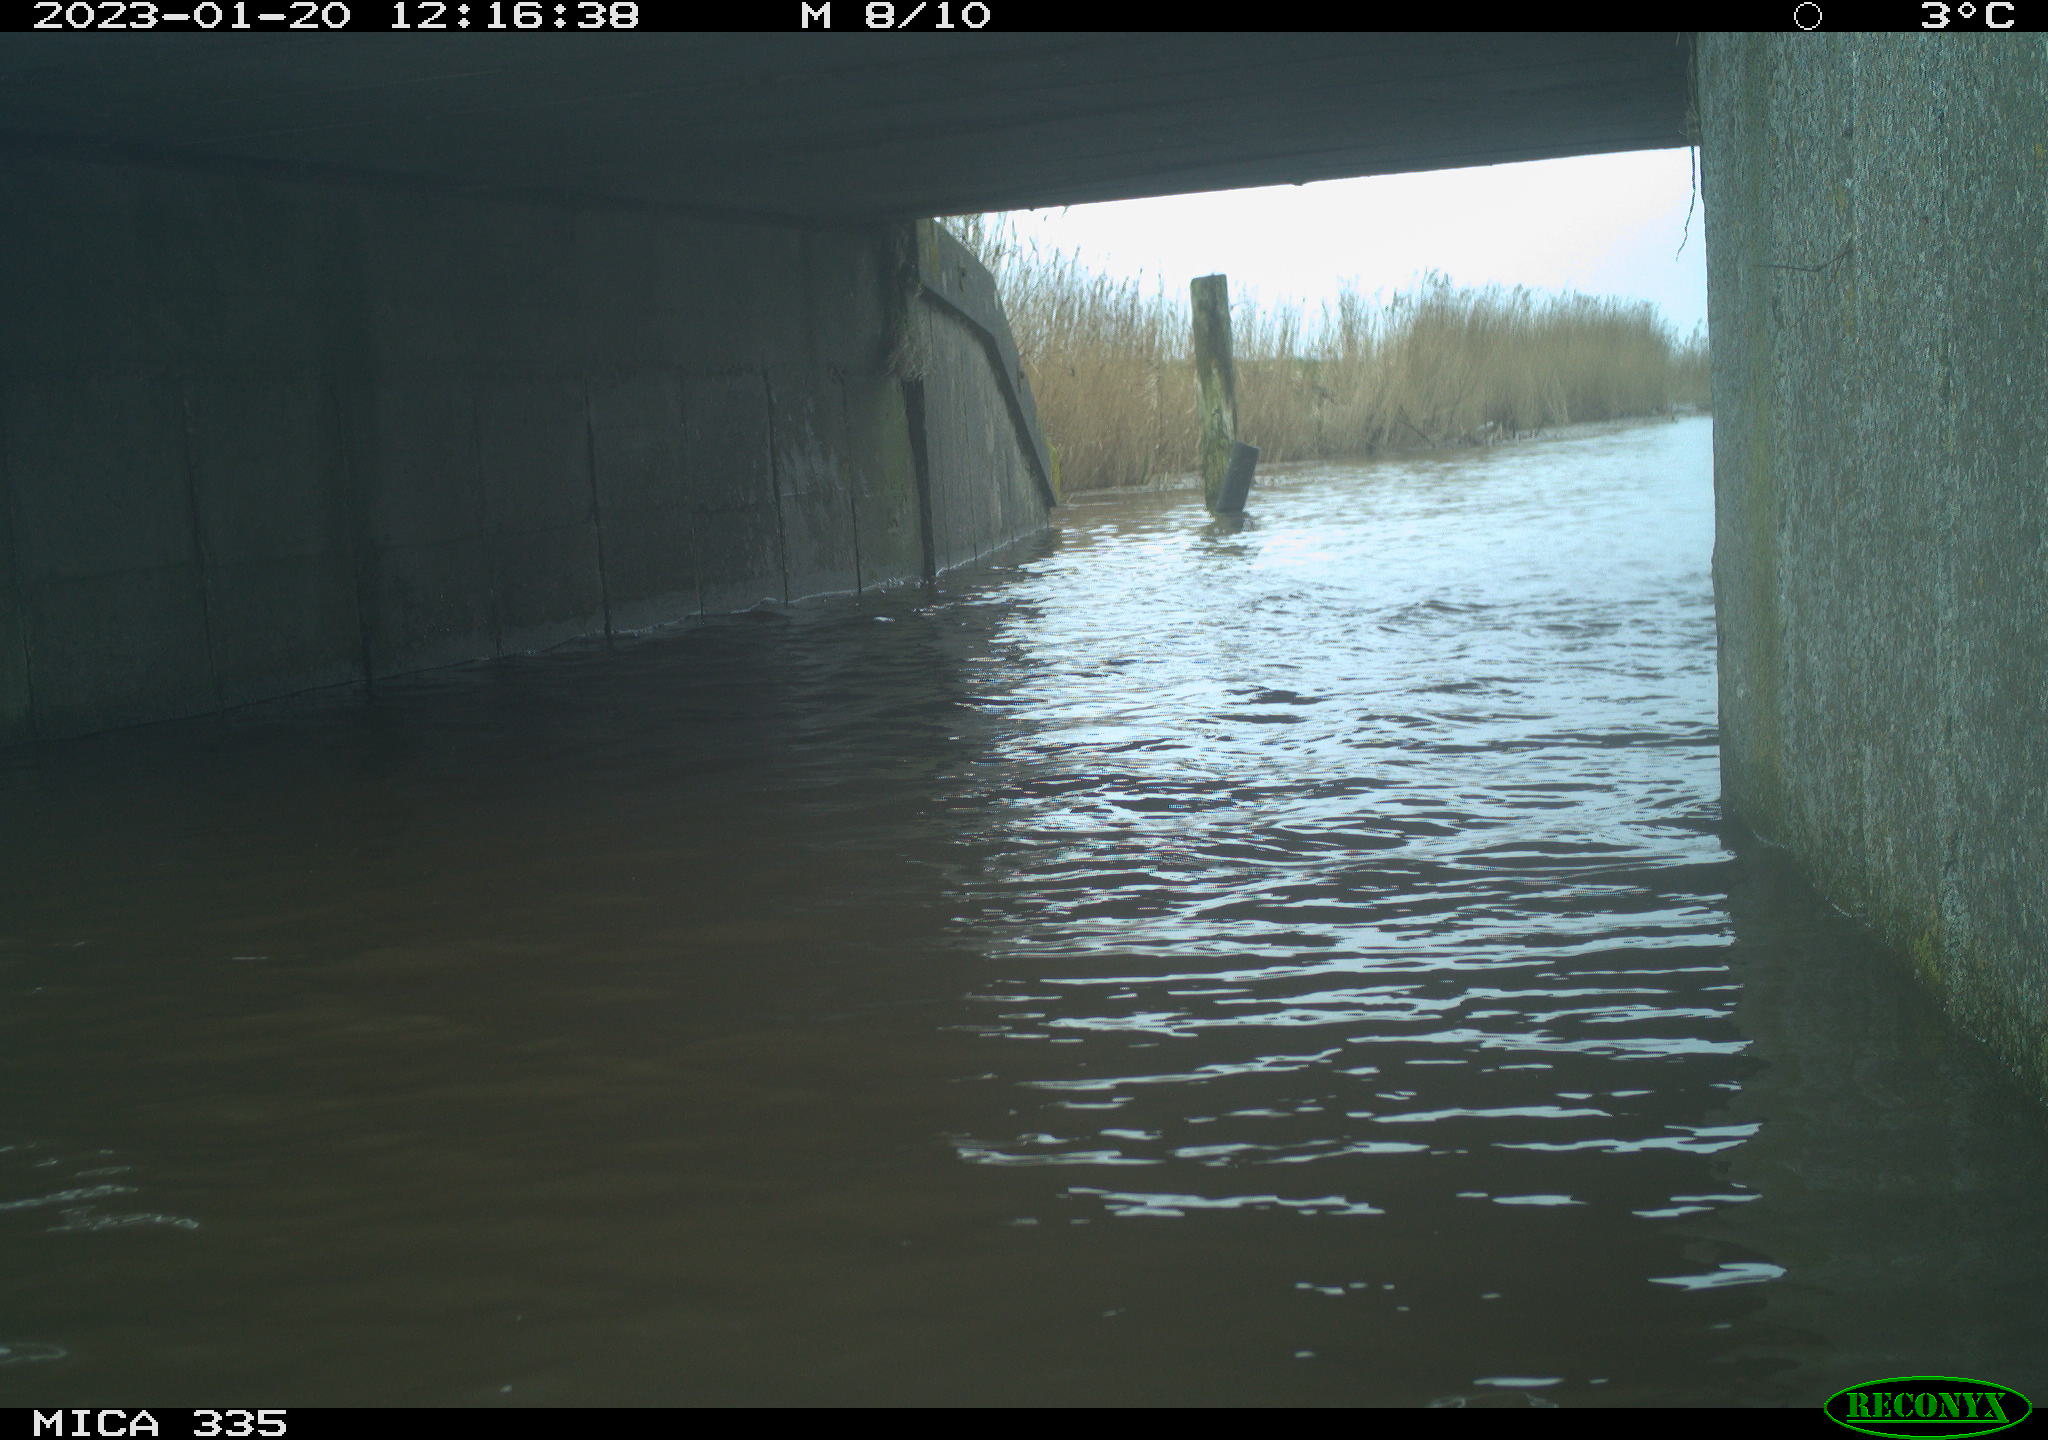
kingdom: Animalia
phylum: Chordata
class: Aves
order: Anseriformes
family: Anatidae
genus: Cygnus
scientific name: Cygnus olor
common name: Mute swan
